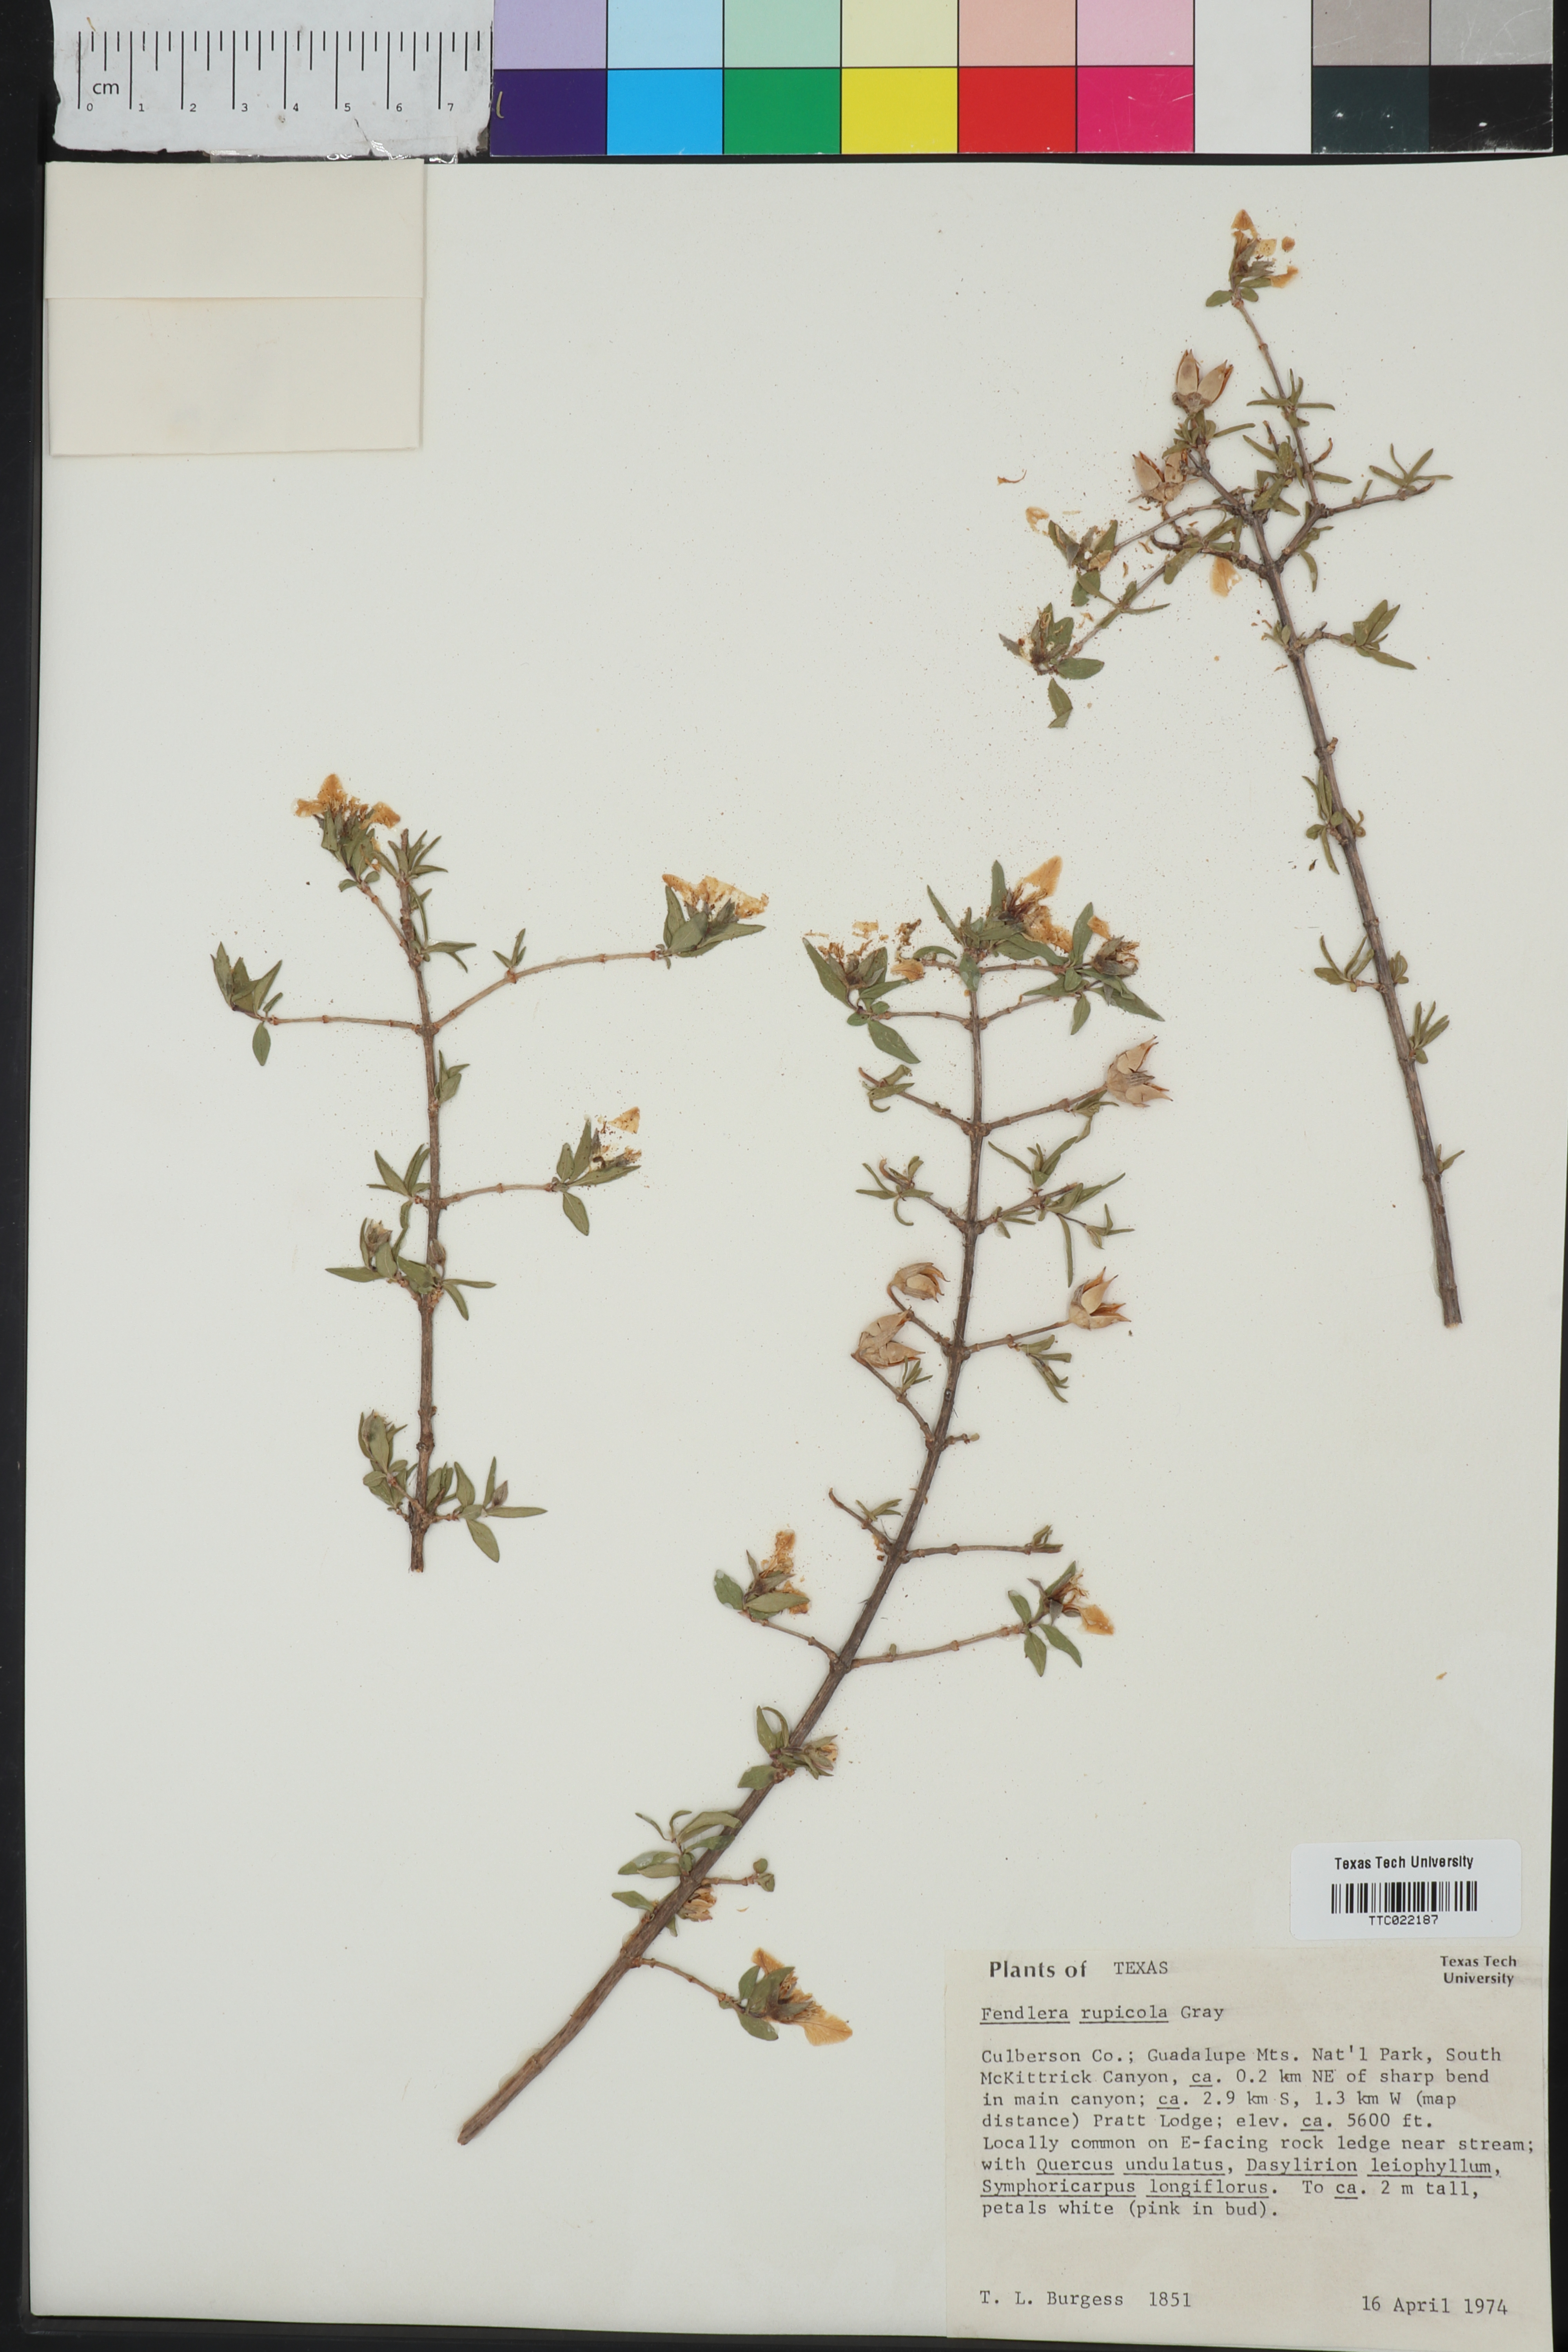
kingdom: Plantae
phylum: Tracheophyta
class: Magnoliopsida
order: Cornales
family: Hydrangeaceae
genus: Fendlera
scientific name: Fendlera rupicola
